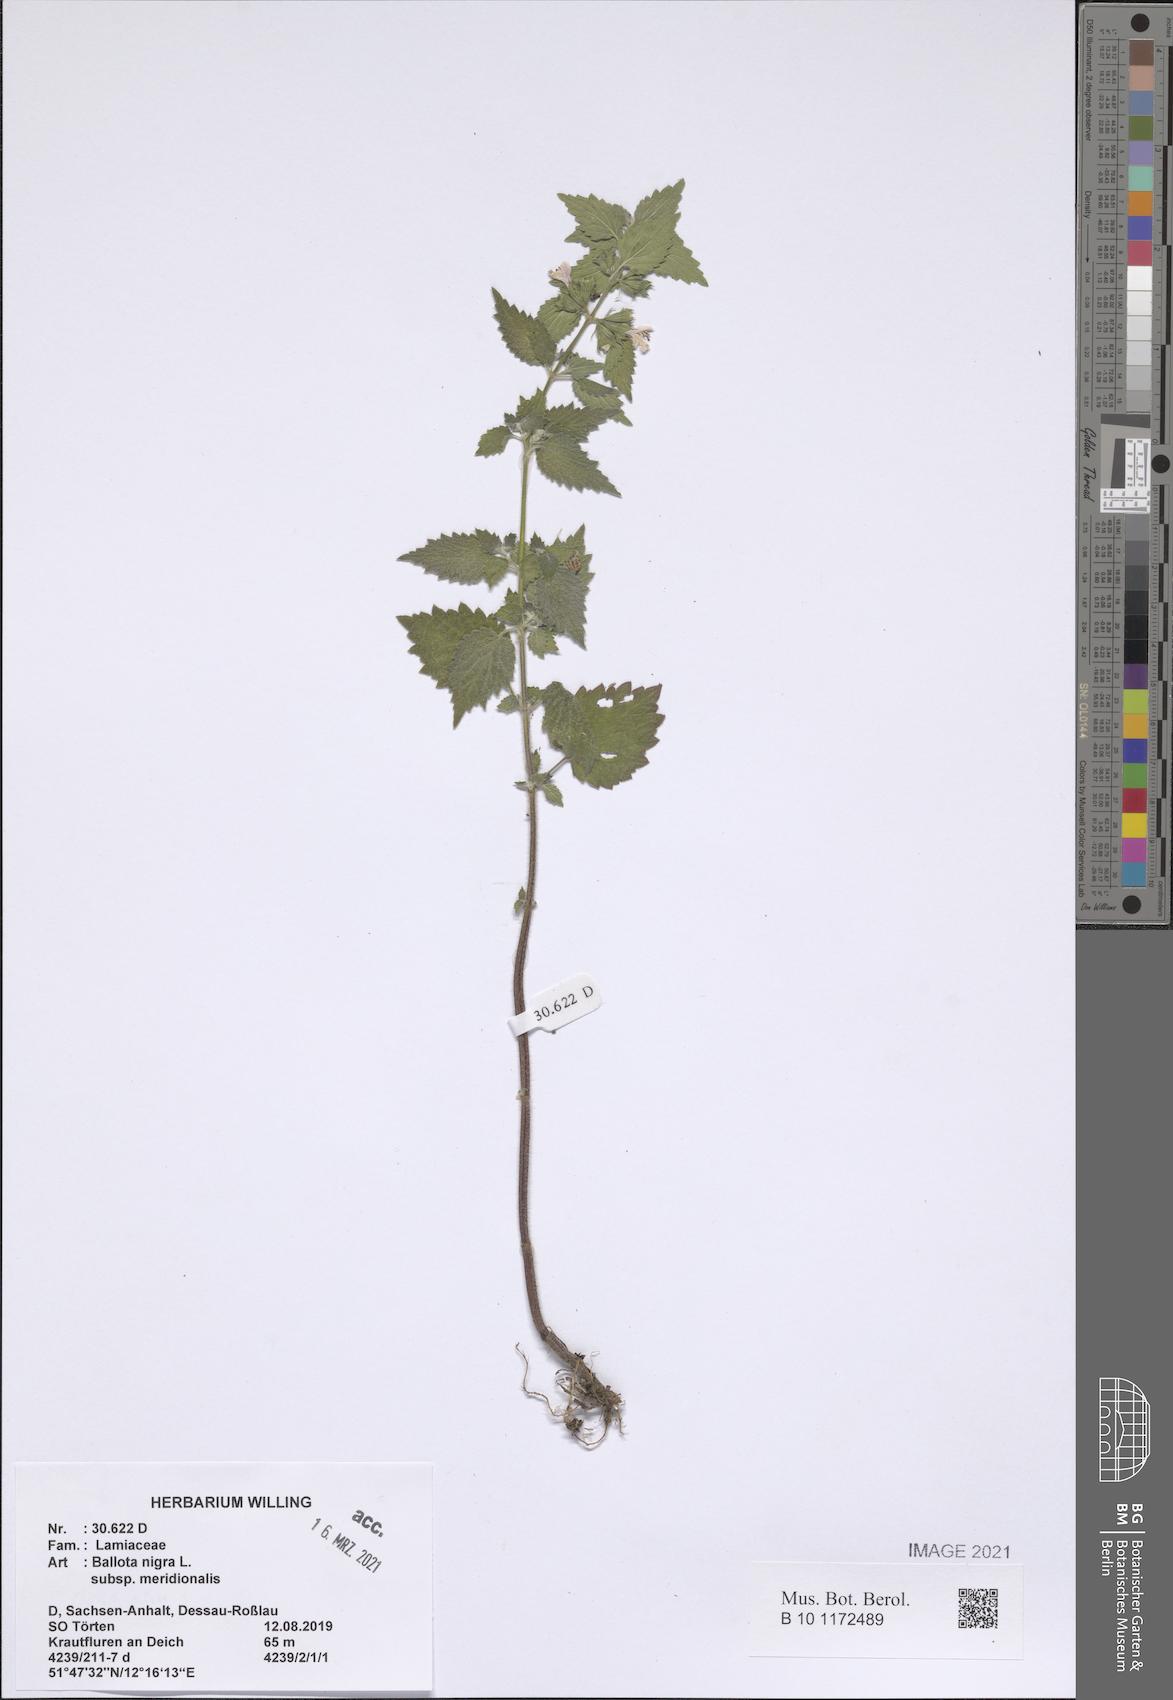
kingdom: Plantae
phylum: Tracheophyta
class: Magnoliopsida
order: Lamiales
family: Lamiaceae
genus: Ballota
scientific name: Ballota nigra
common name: Black horehound
